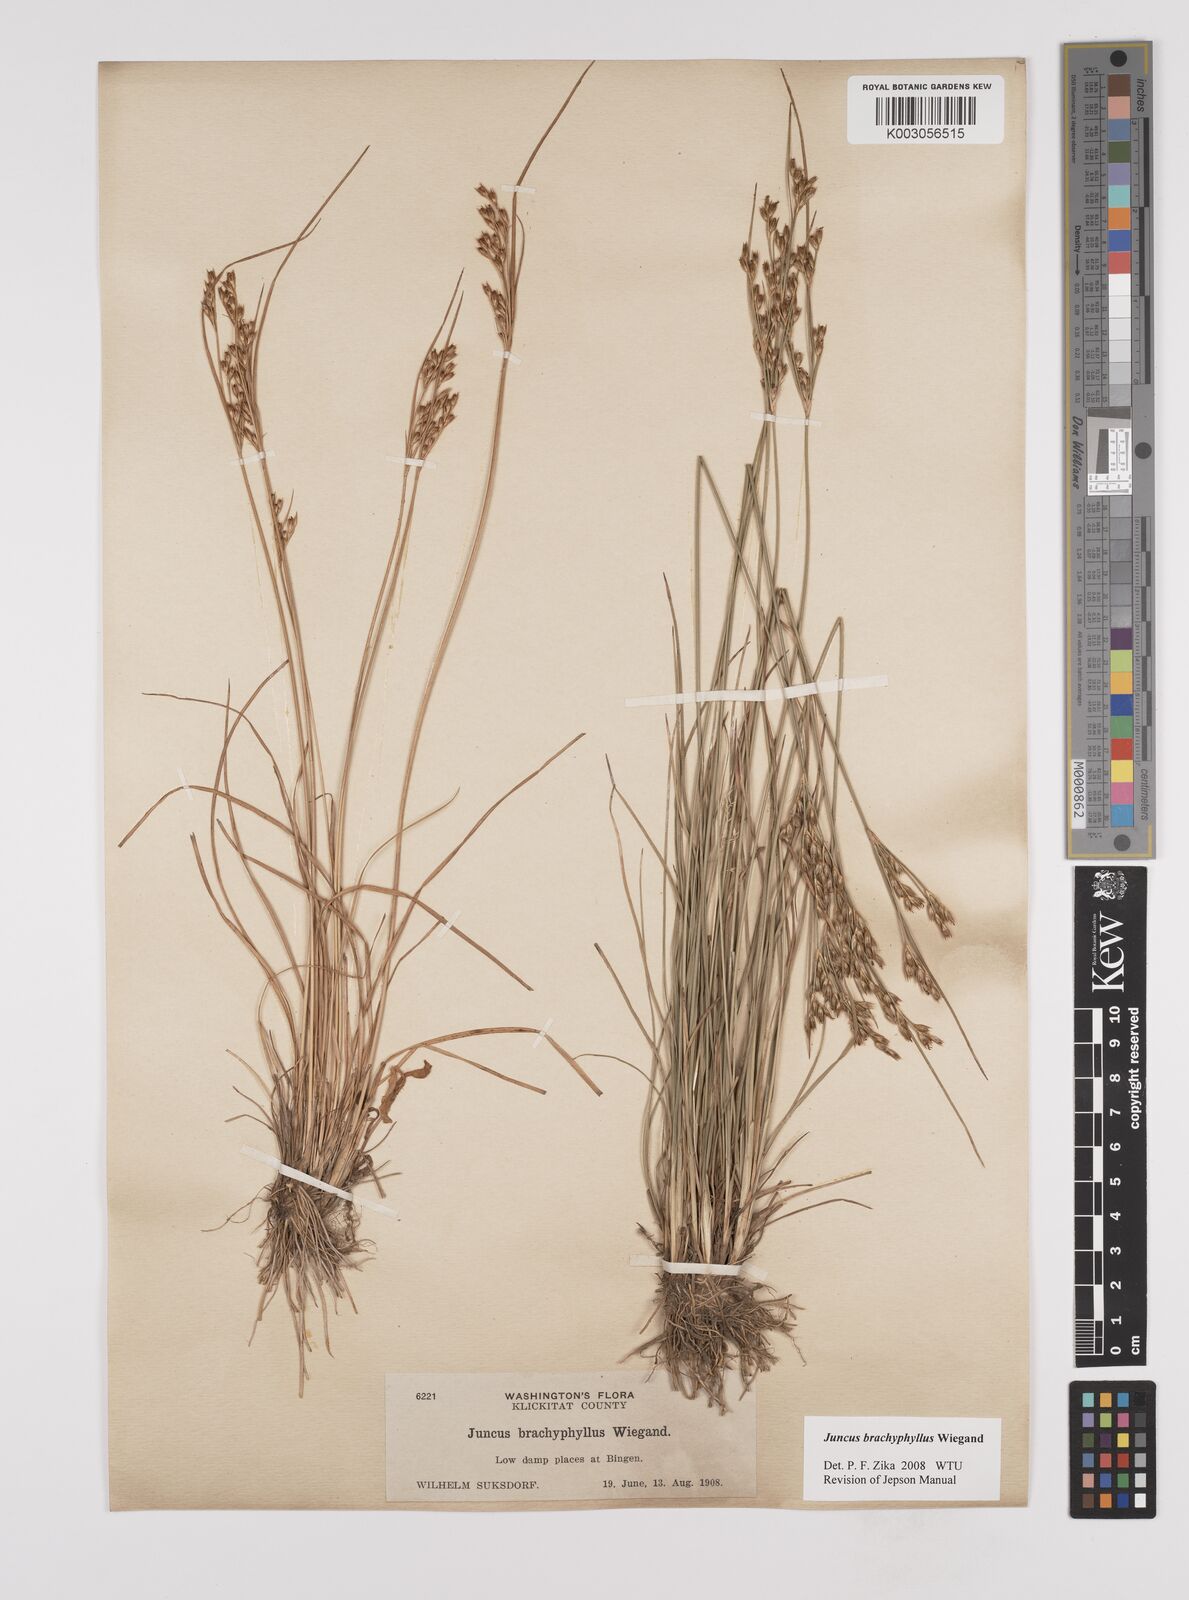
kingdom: Plantae
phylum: Tracheophyta
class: Liliopsida
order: Poales
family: Juncaceae
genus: Juncus
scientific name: Juncus brachyphyllus
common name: Tufted-stem rush
